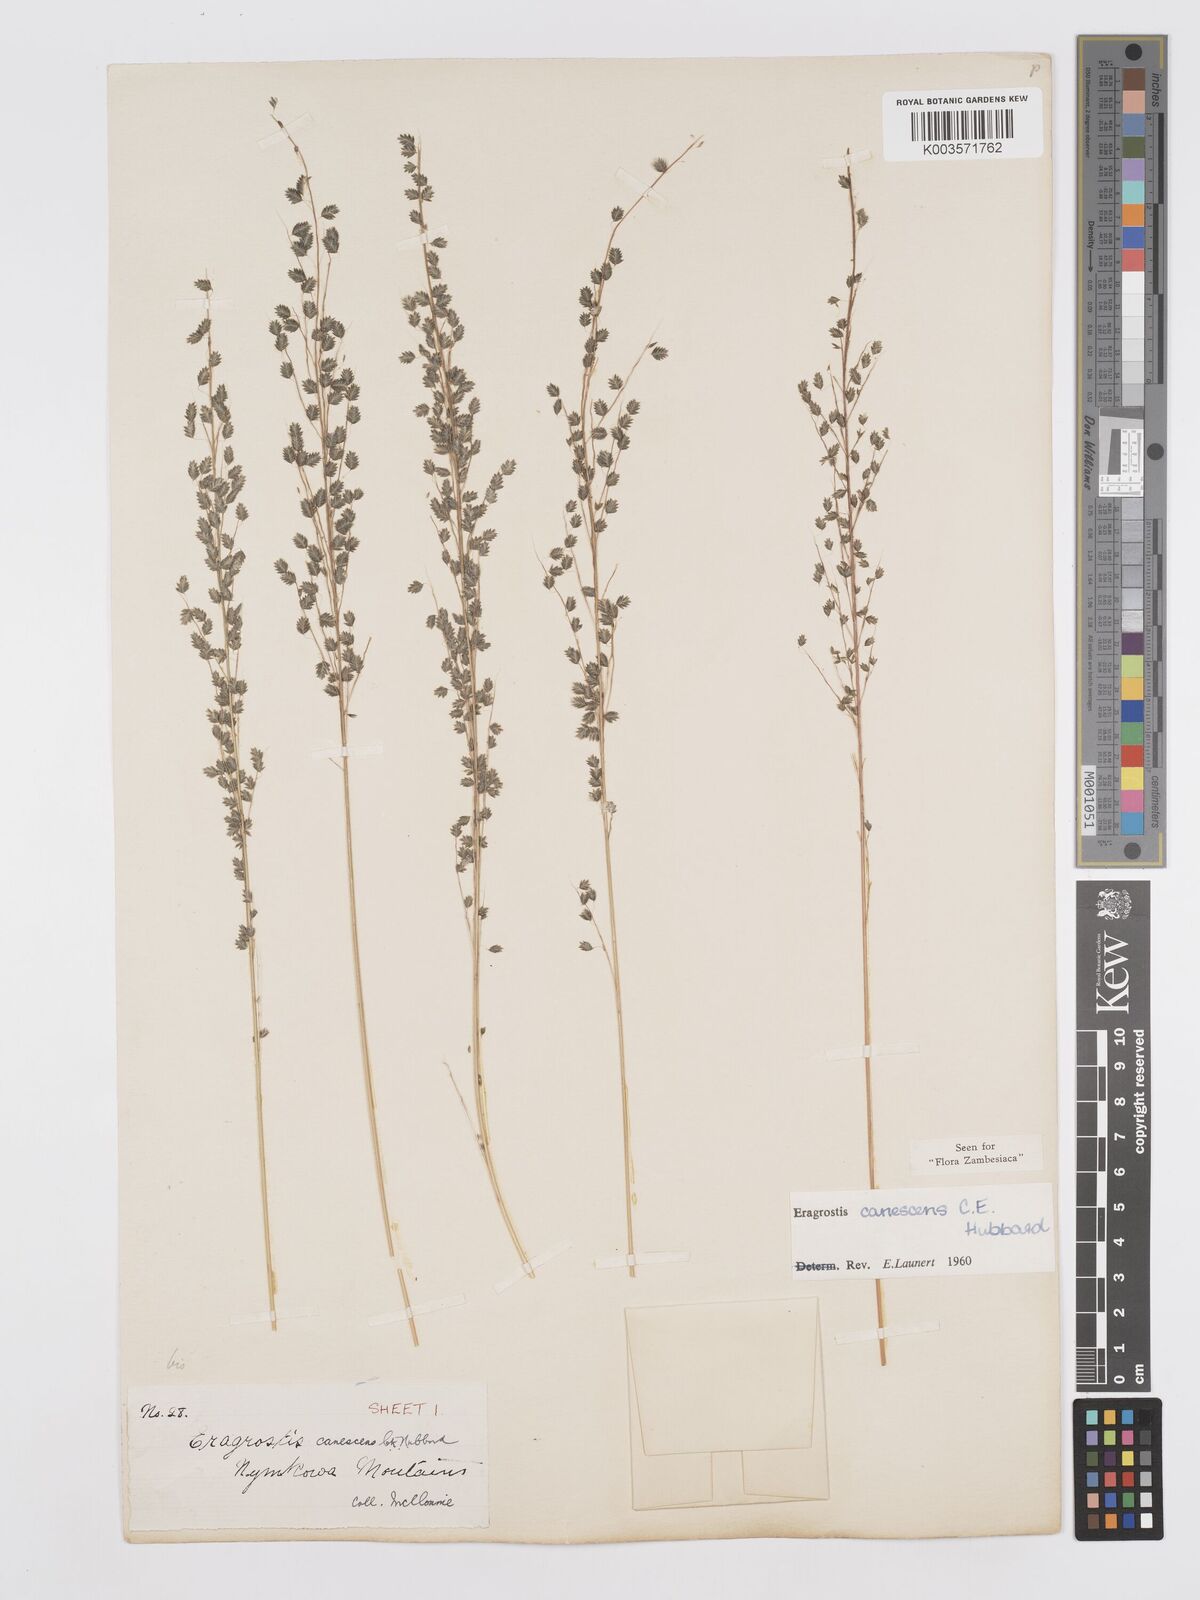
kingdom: Plantae
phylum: Tracheophyta
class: Liliopsida
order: Poales
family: Poaceae
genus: Eragrostis
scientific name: Eragrostis canescens
